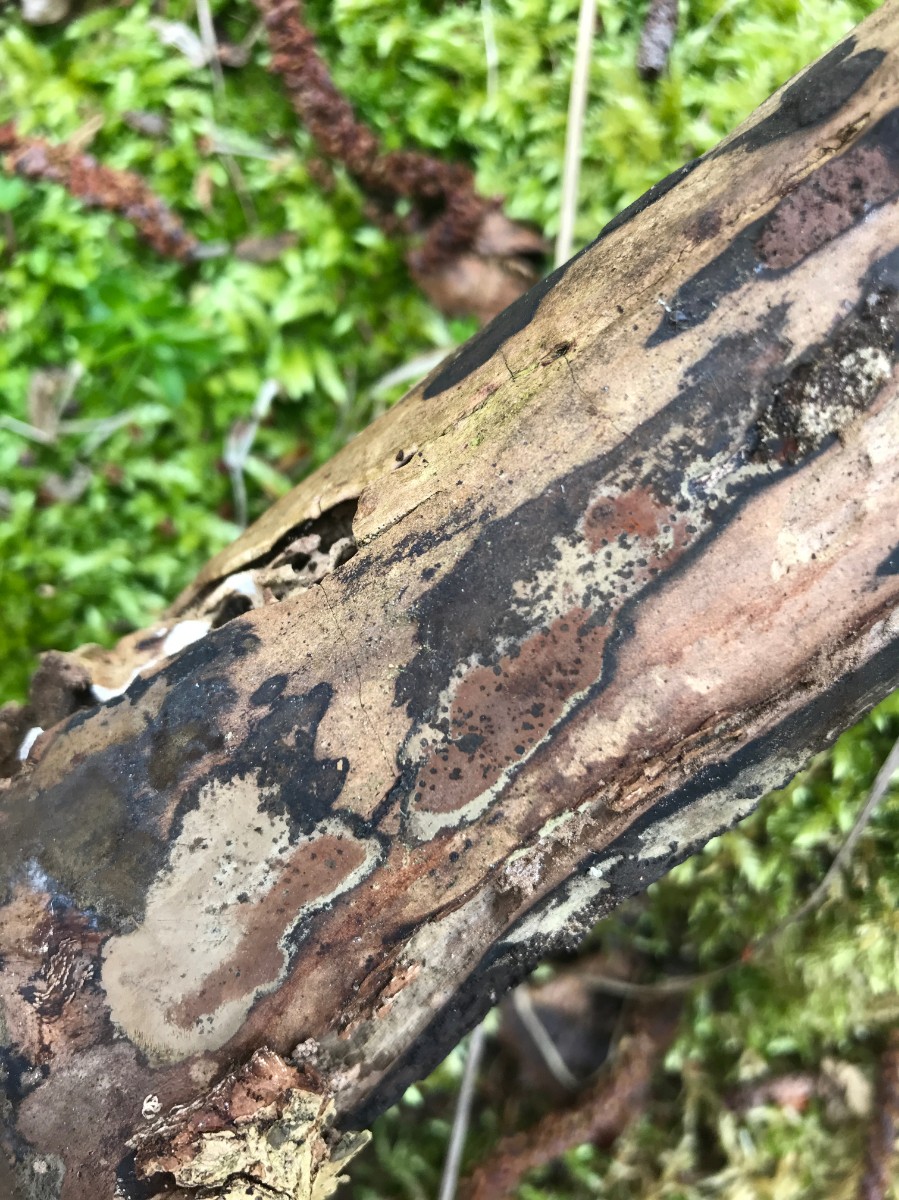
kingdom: Fungi
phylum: Ascomycota
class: Sordariomycetes
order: Xylariales
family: Hypoxylaceae
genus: Hypoxylon
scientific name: Hypoxylon petriniae
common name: nedsænket kulbær
